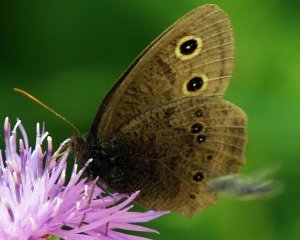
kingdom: Animalia
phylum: Arthropoda
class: Insecta
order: Lepidoptera
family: Nymphalidae
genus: Cercyonis
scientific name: Cercyonis pegala
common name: Common Wood-Nymph
